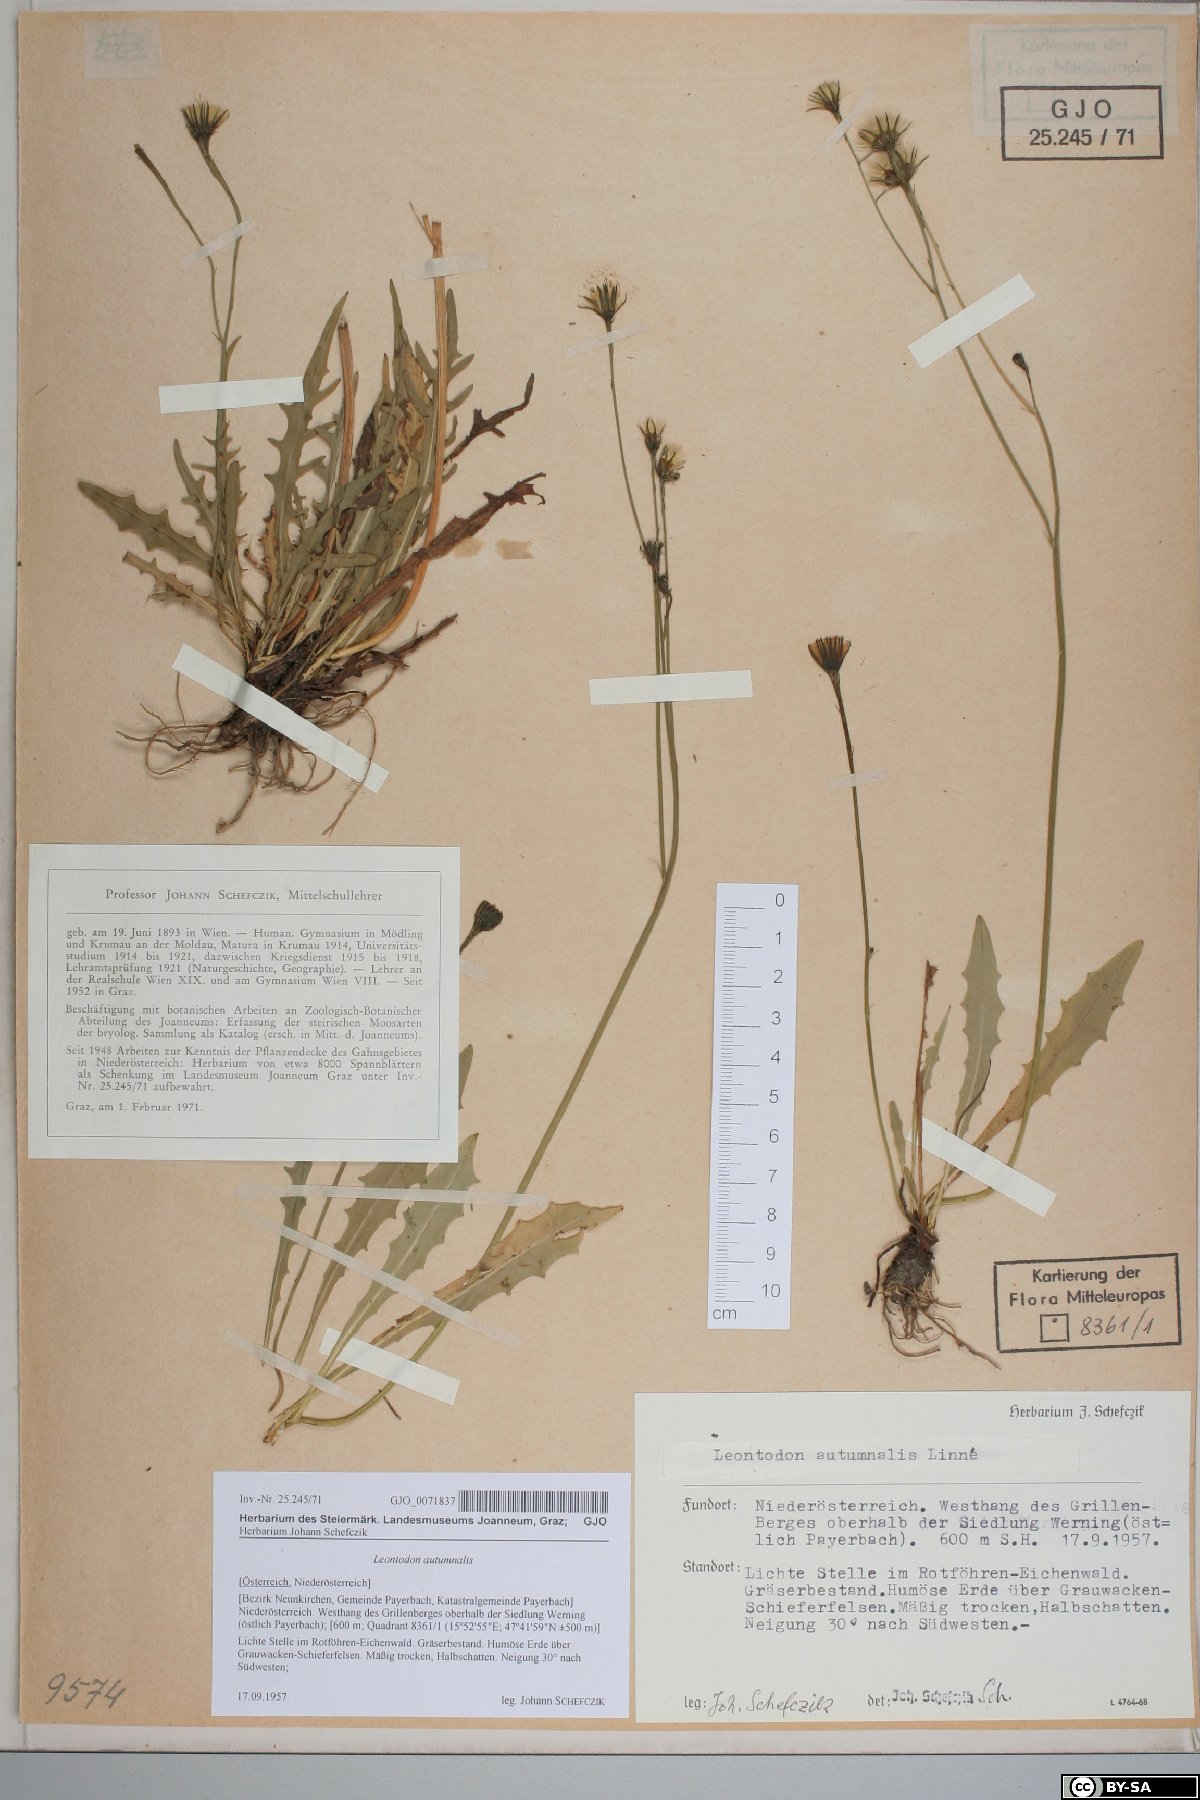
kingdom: Plantae
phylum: Tracheophyta
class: Magnoliopsida
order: Asterales
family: Asteraceae
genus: Scorzoneroides
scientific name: Scorzoneroides autumnalis
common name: Autumn hawkbit
